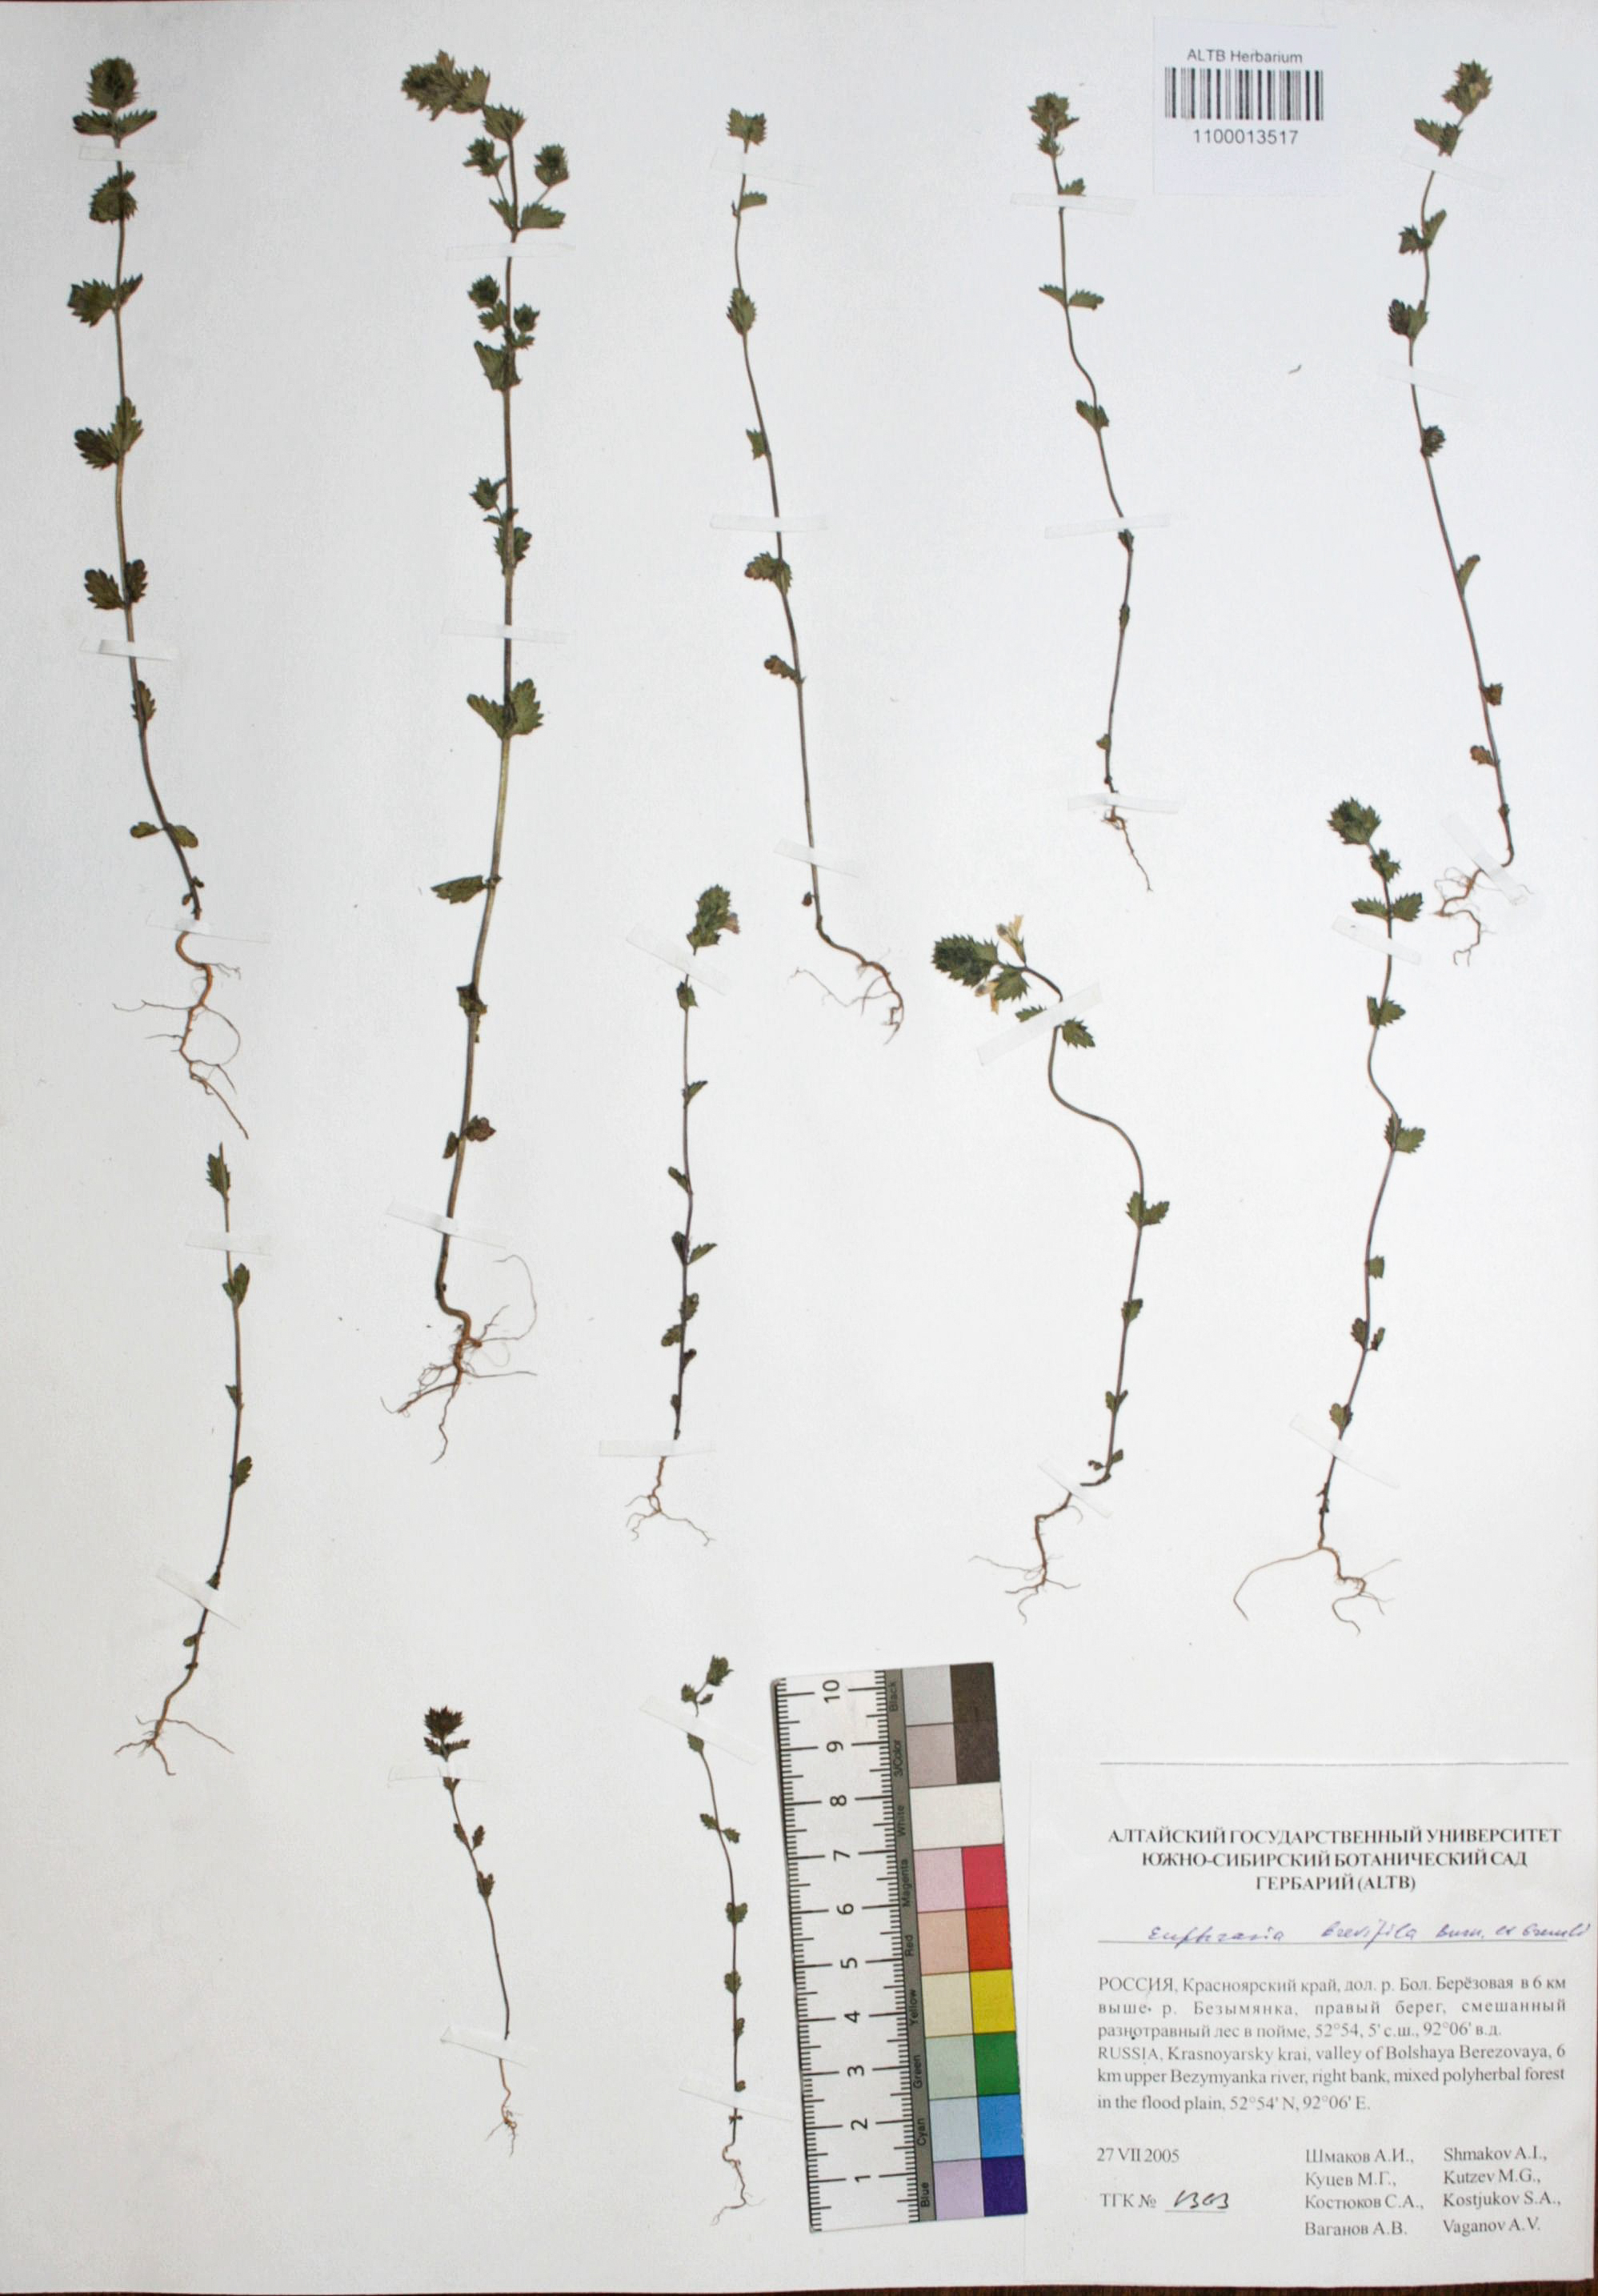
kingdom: Plantae
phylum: Tracheophyta
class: Magnoliopsida
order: Lamiales
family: Orobanchaceae
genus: Euphrasia
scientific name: Euphrasia vernalis
